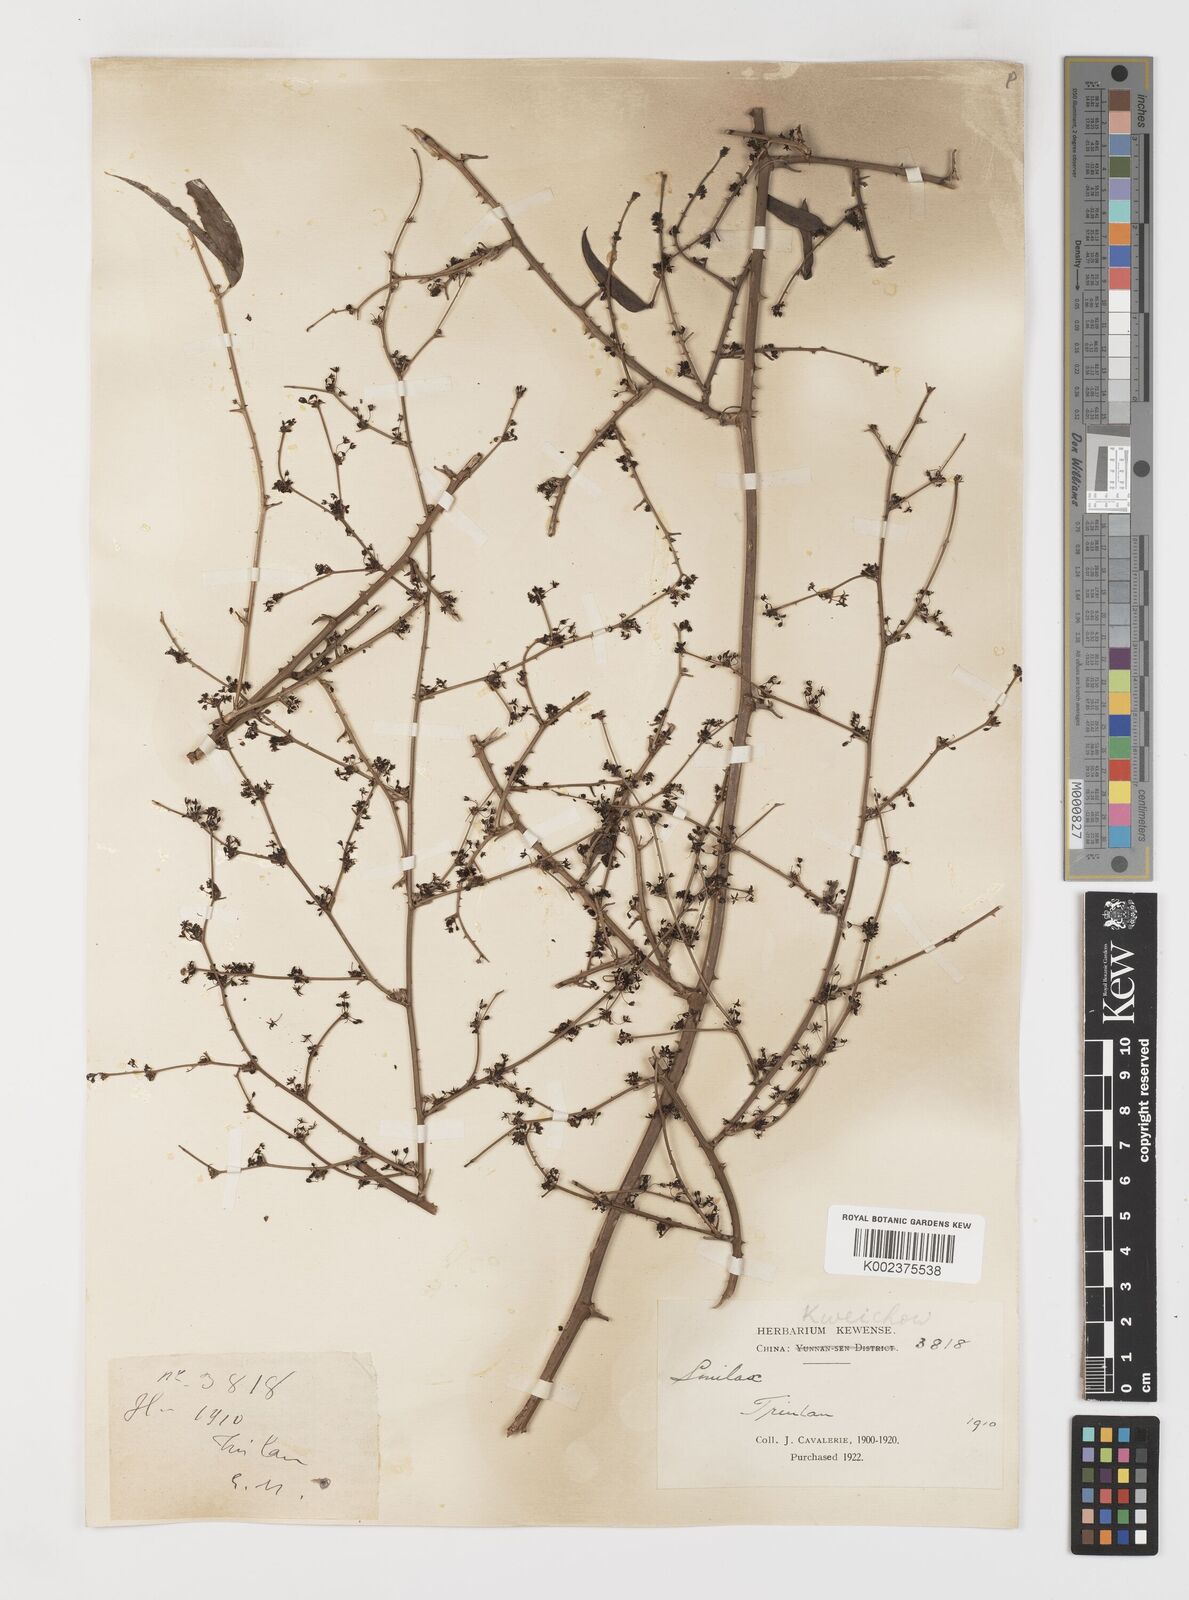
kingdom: Plantae
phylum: Tracheophyta
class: Liliopsida
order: Liliales
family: Smilacaceae
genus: Smilax
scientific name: Smilax microphylla
